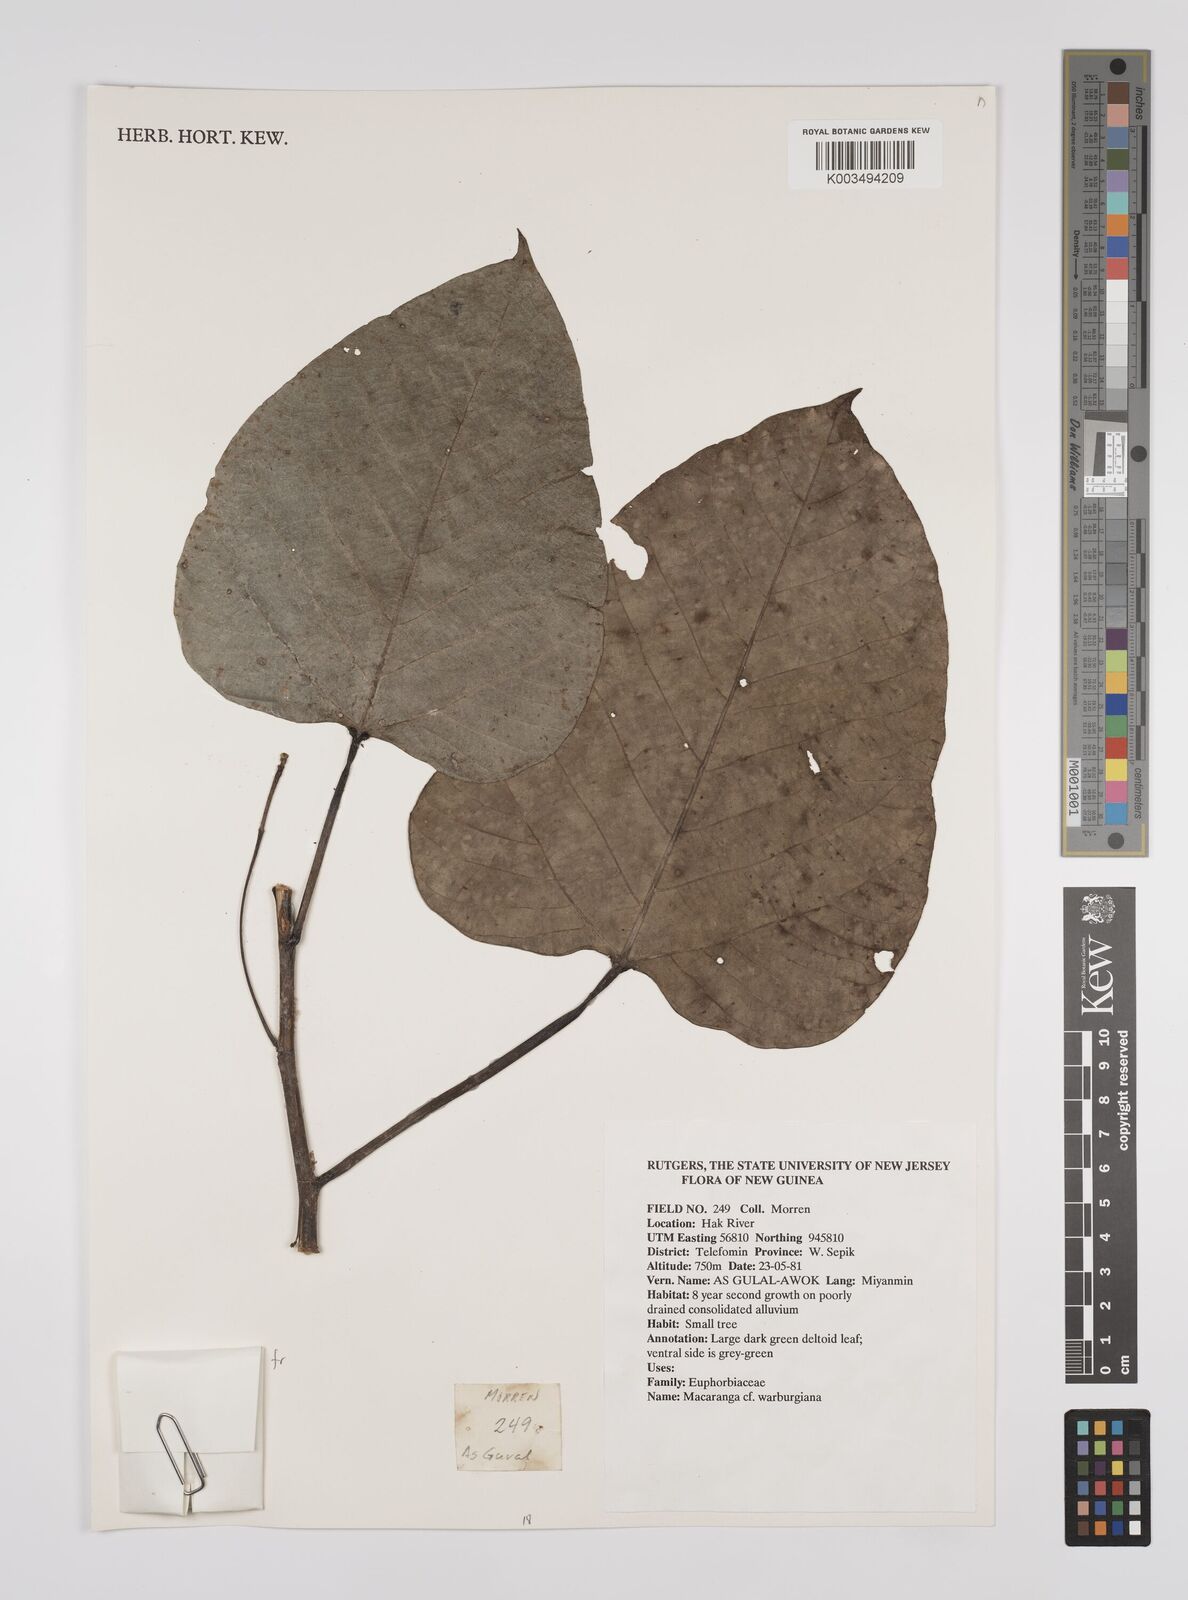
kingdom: Plantae
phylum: Tracheophyta
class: Magnoliopsida
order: Malpighiales
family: Euphorbiaceae
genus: Macaranga
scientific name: Macaranga warburgiana
